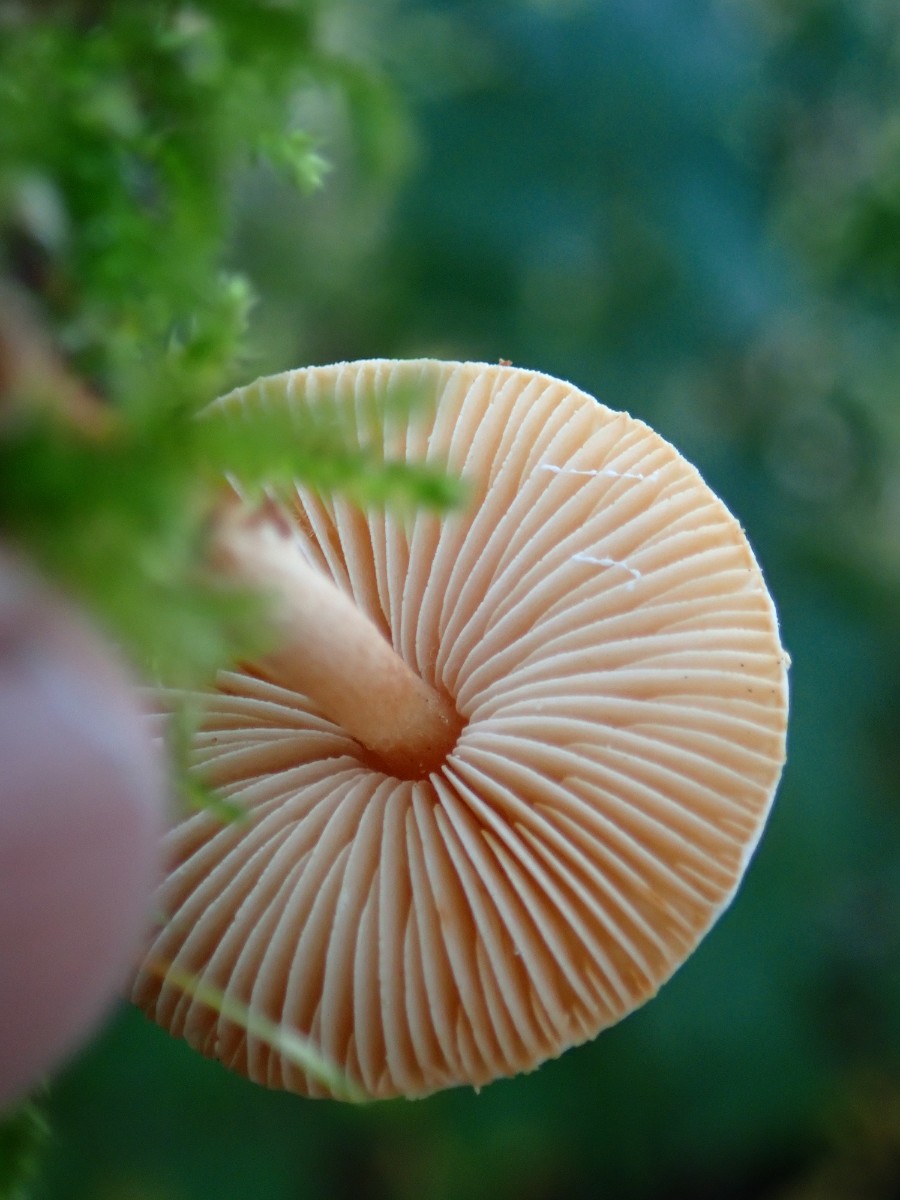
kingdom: Fungi
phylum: Basidiomycota
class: Agaricomycetes
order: Agaricales
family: Agaricaceae
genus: Lepiota
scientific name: Lepiota castanea
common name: kastaniebrun parasolhat
